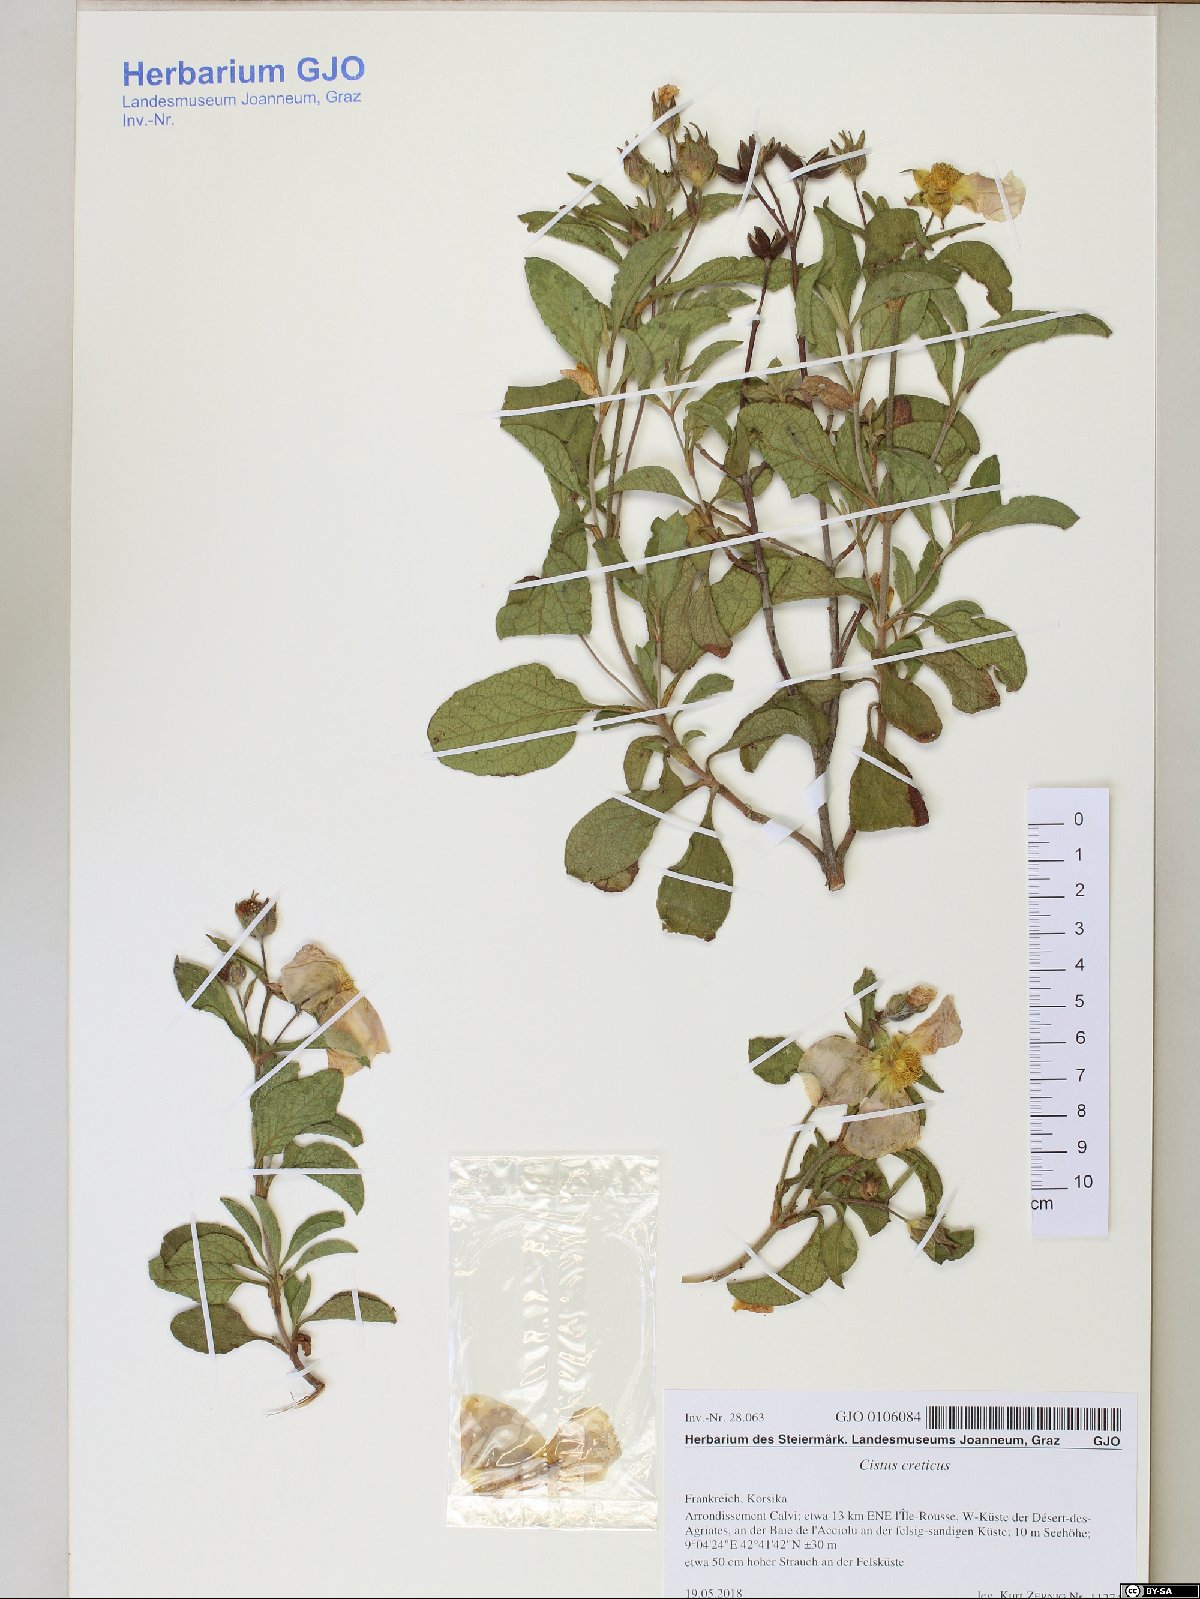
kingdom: Plantae
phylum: Tracheophyta
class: Magnoliopsida
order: Malvales
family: Cistaceae
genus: Cistus
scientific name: Cistus creticus
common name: Cretan rockrose
